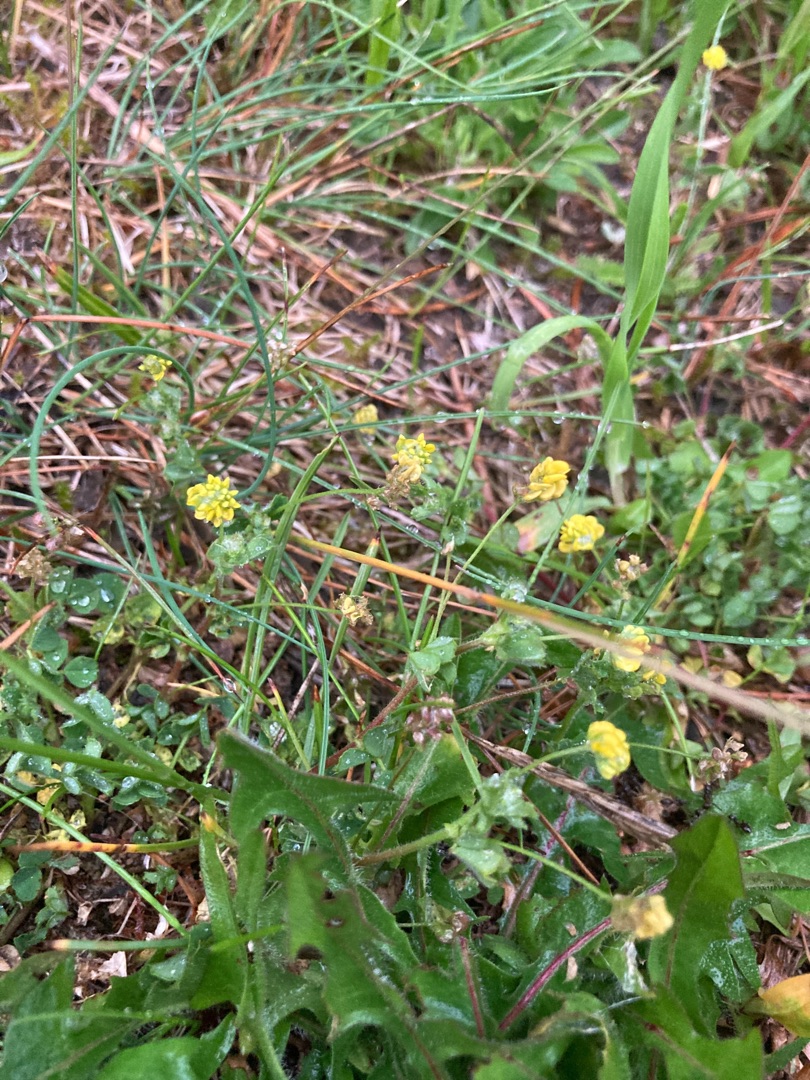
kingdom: Plantae
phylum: Tracheophyta
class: Magnoliopsida
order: Fabales
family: Fabaceae
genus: Medicago
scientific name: Medicago lupulina
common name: Humle-sneglebælg
